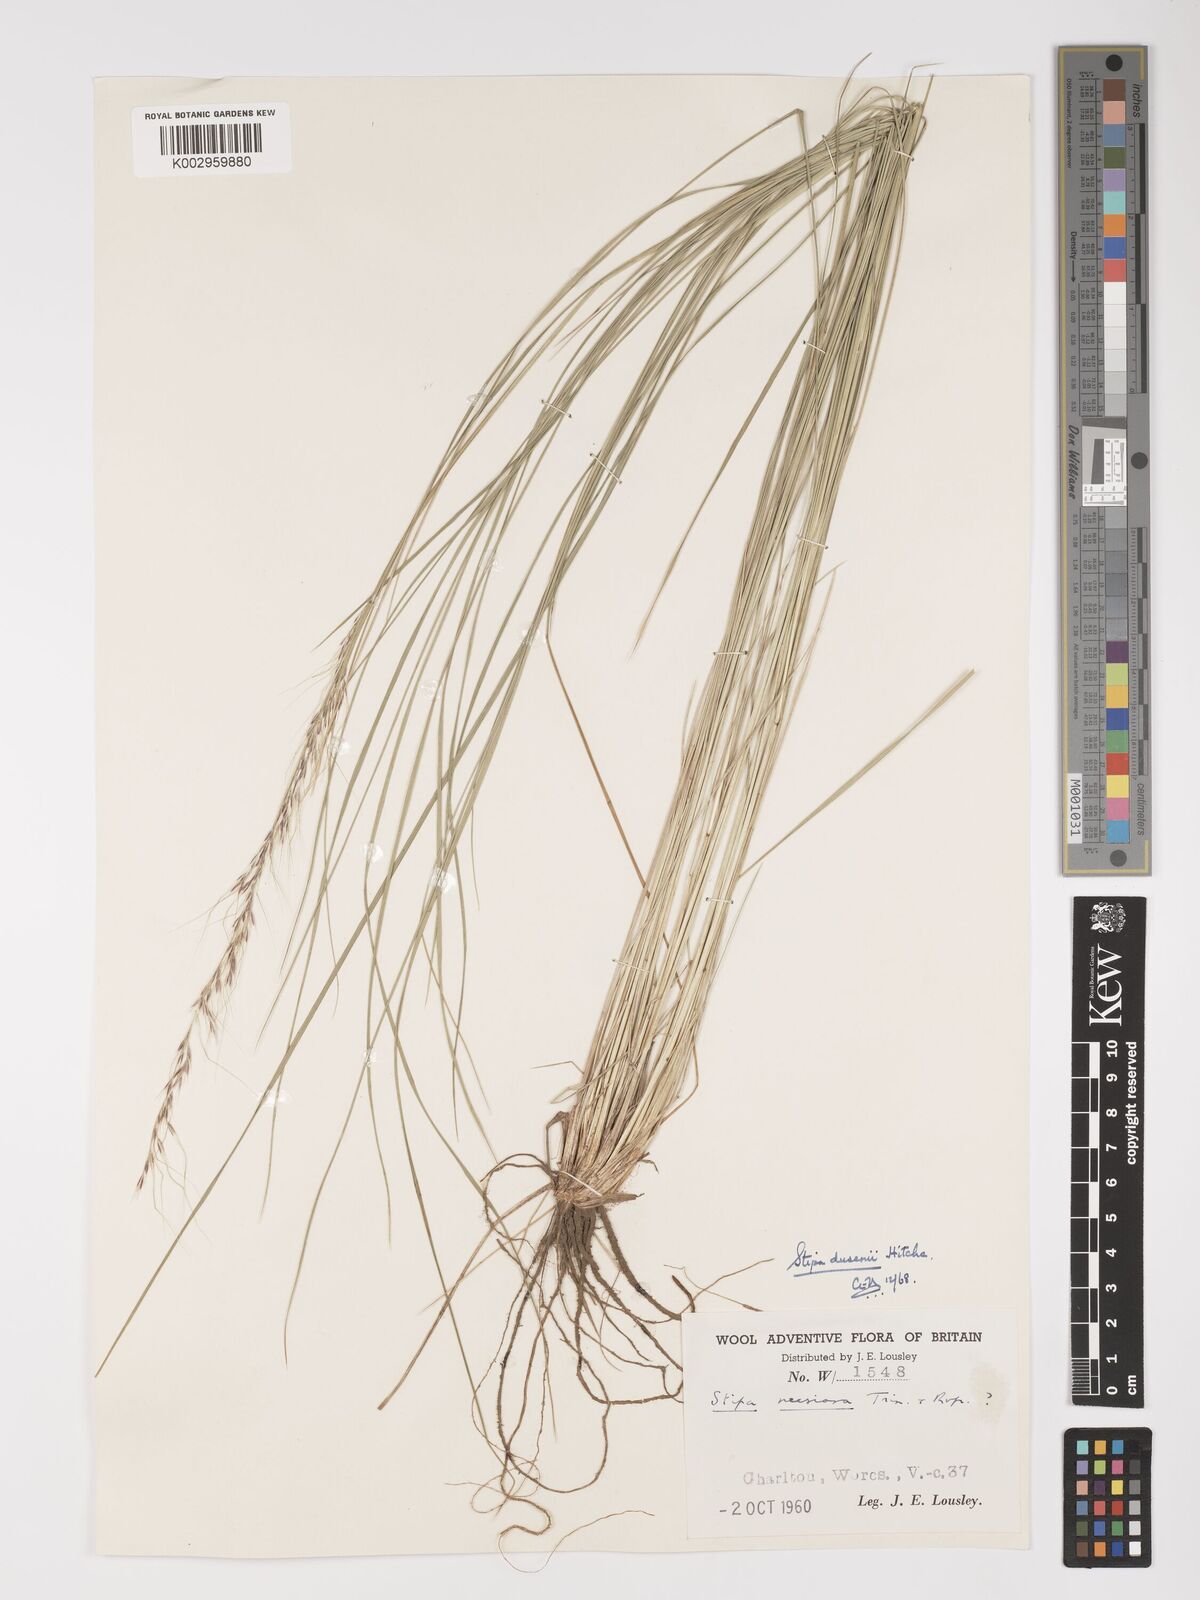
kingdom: Plantae
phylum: Tracheophyta
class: Liliopsida
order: Poales
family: Poaceae
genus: Amelichloa
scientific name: Amelichloa ambigua
